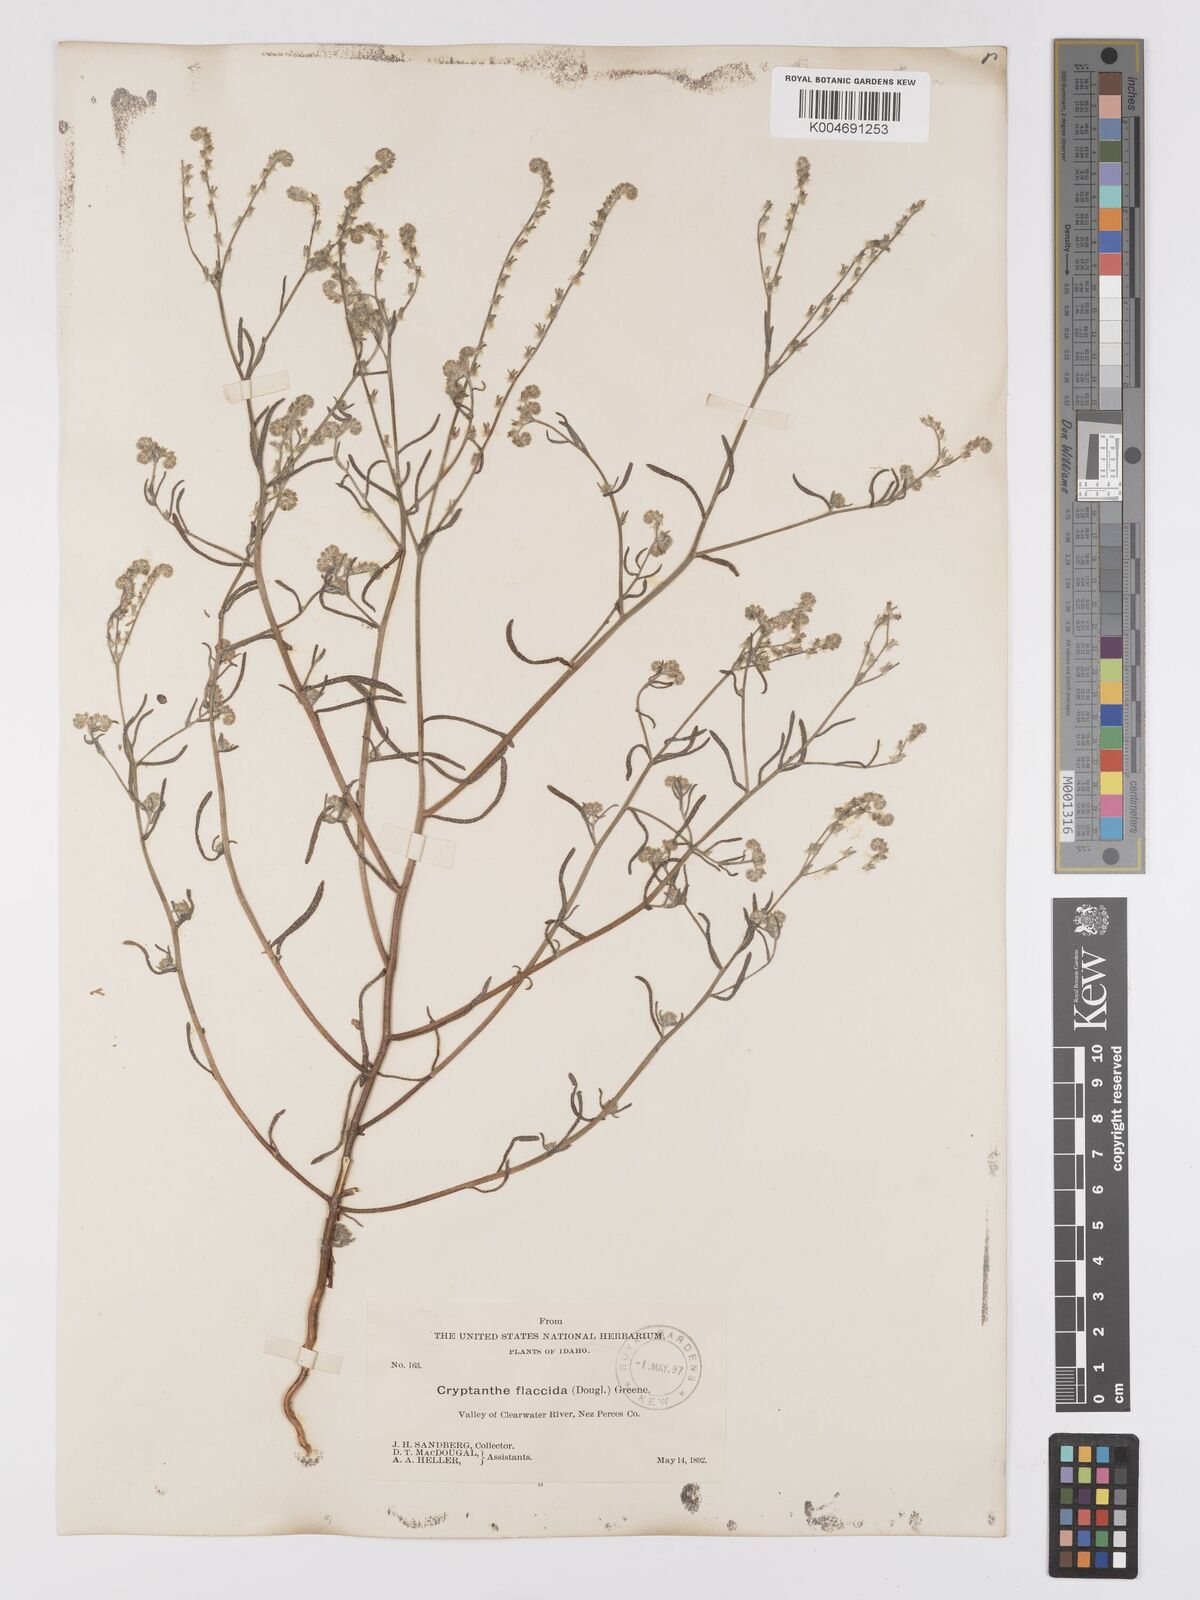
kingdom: Plantae
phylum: Tracheophyta
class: Magnoliopsida
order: Boraginales
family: Boraginaceae
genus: Cryptantha
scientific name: Cryptantha flaccida
